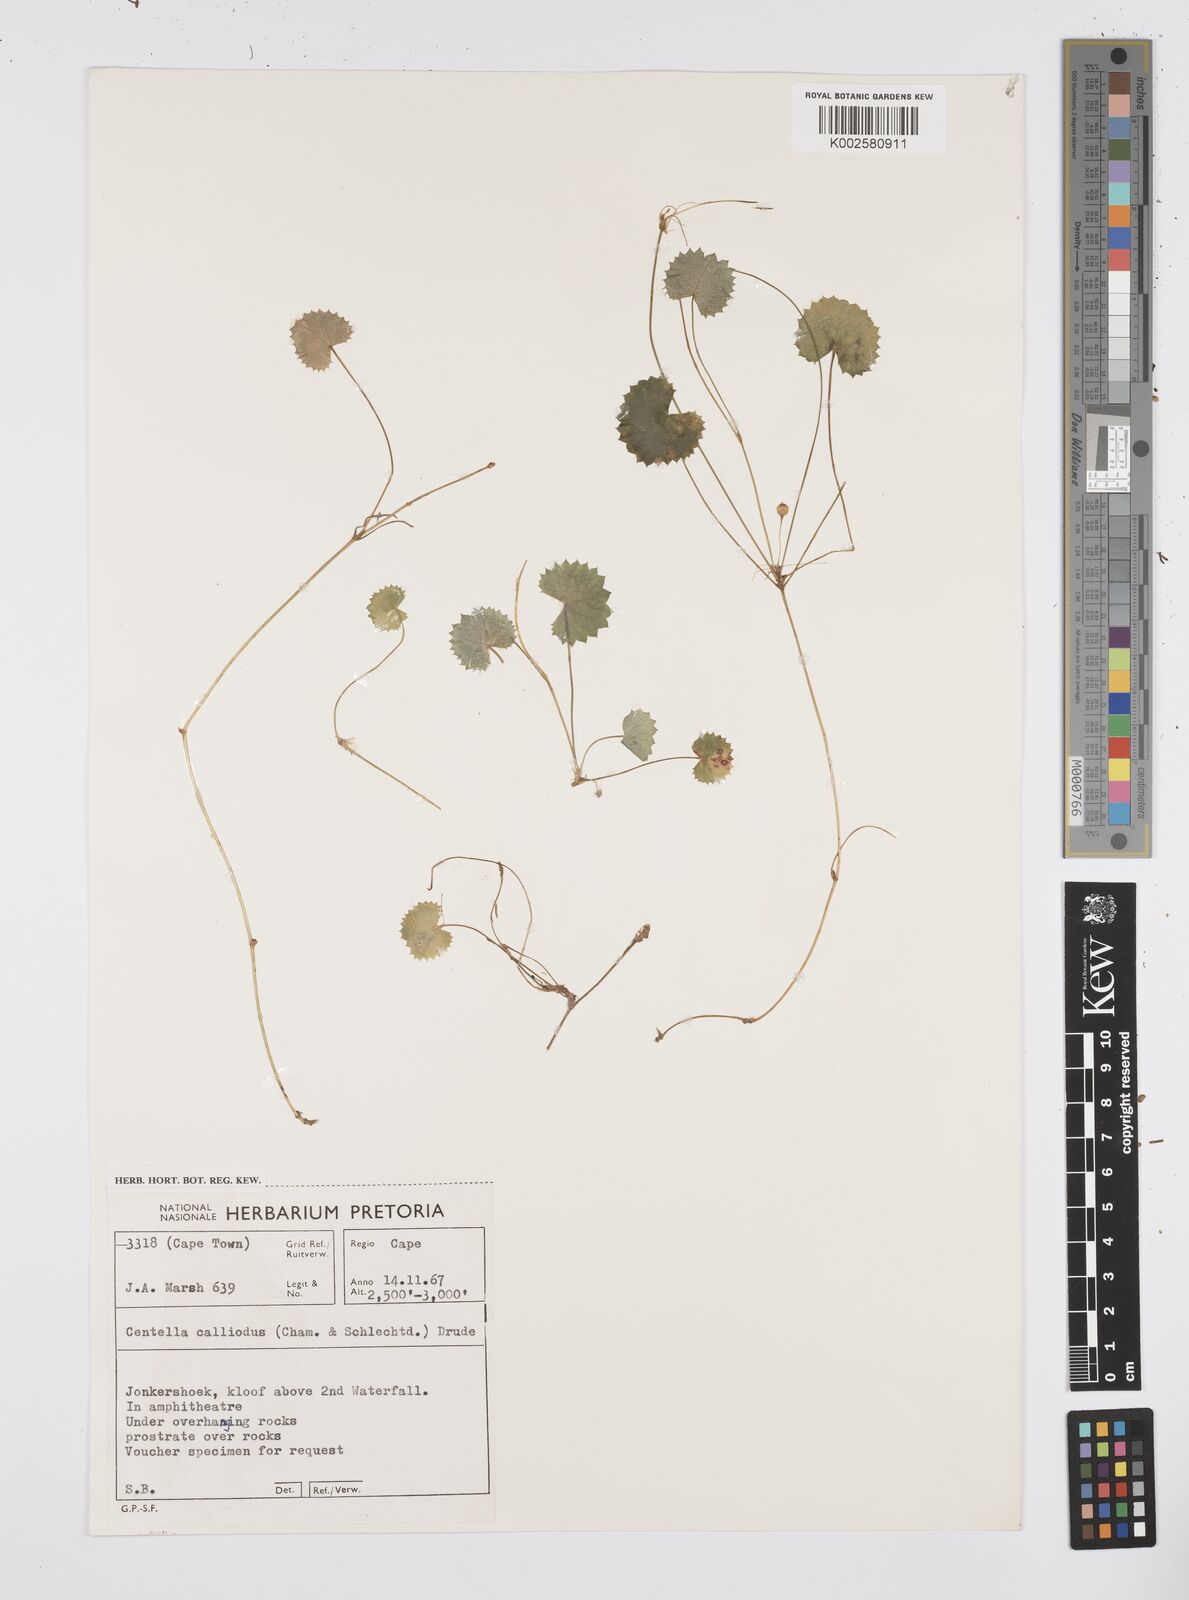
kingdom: Plantae
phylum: Tracheophyta
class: Magnoliopsida
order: Apiales
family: Apiaceae
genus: Centella
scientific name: Centella
